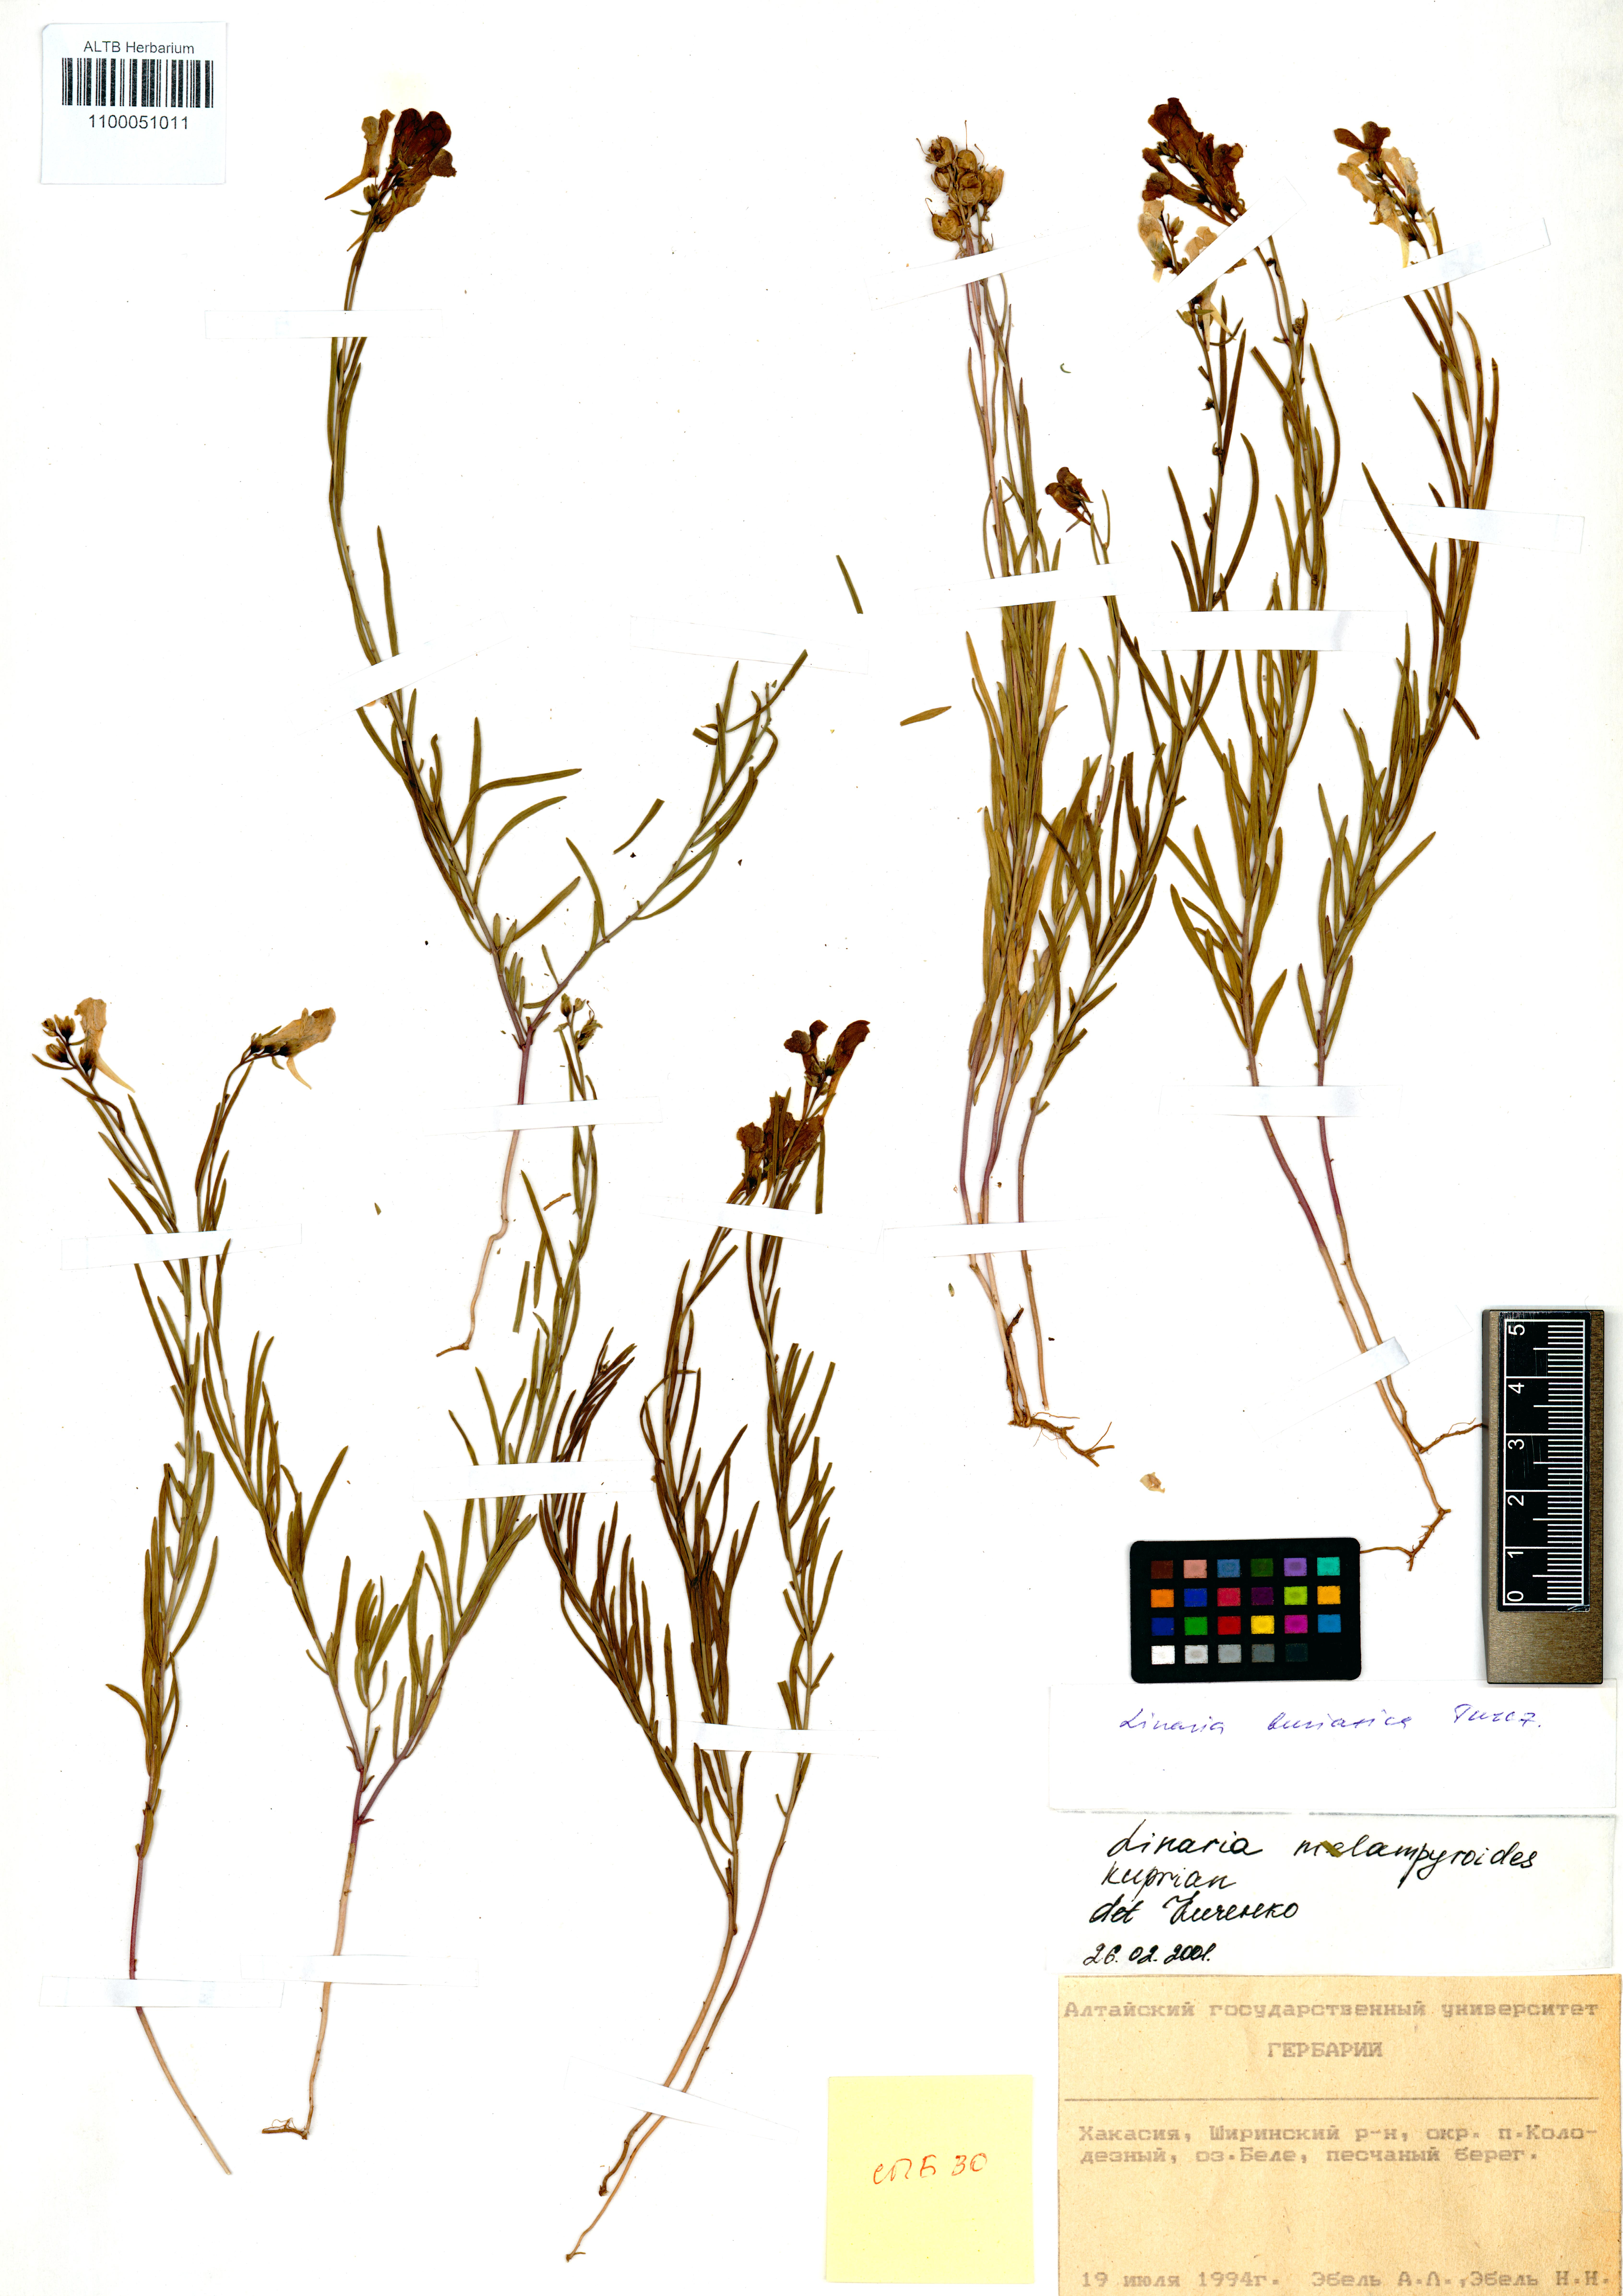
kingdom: Plantae
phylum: Tracheophyta
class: Magnoliopsida
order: Lamiales
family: Plantaginaceae
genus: Linaria
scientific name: Linaria buriatica
